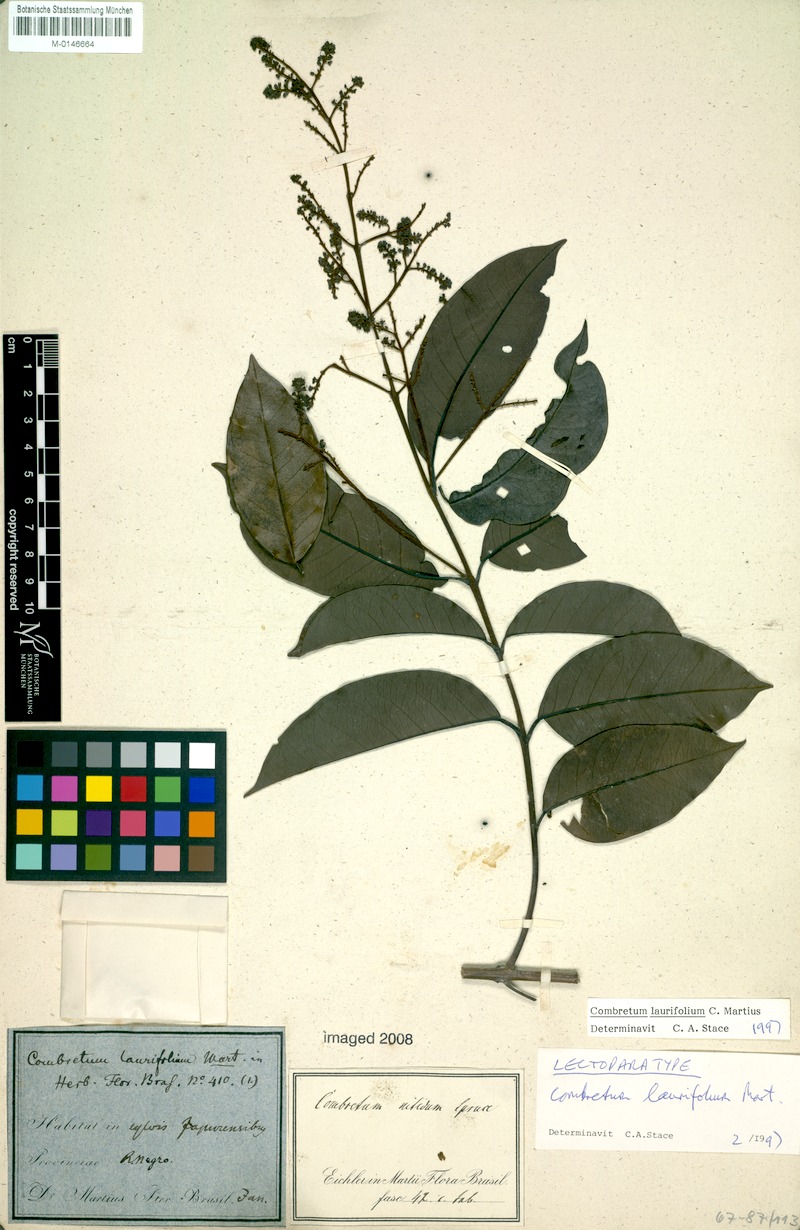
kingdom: Plantae
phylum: Tracheophyta
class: Magnoliopsida
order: Myrtales
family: Combretaceae
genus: Combretum
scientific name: Combretum laurifolium
